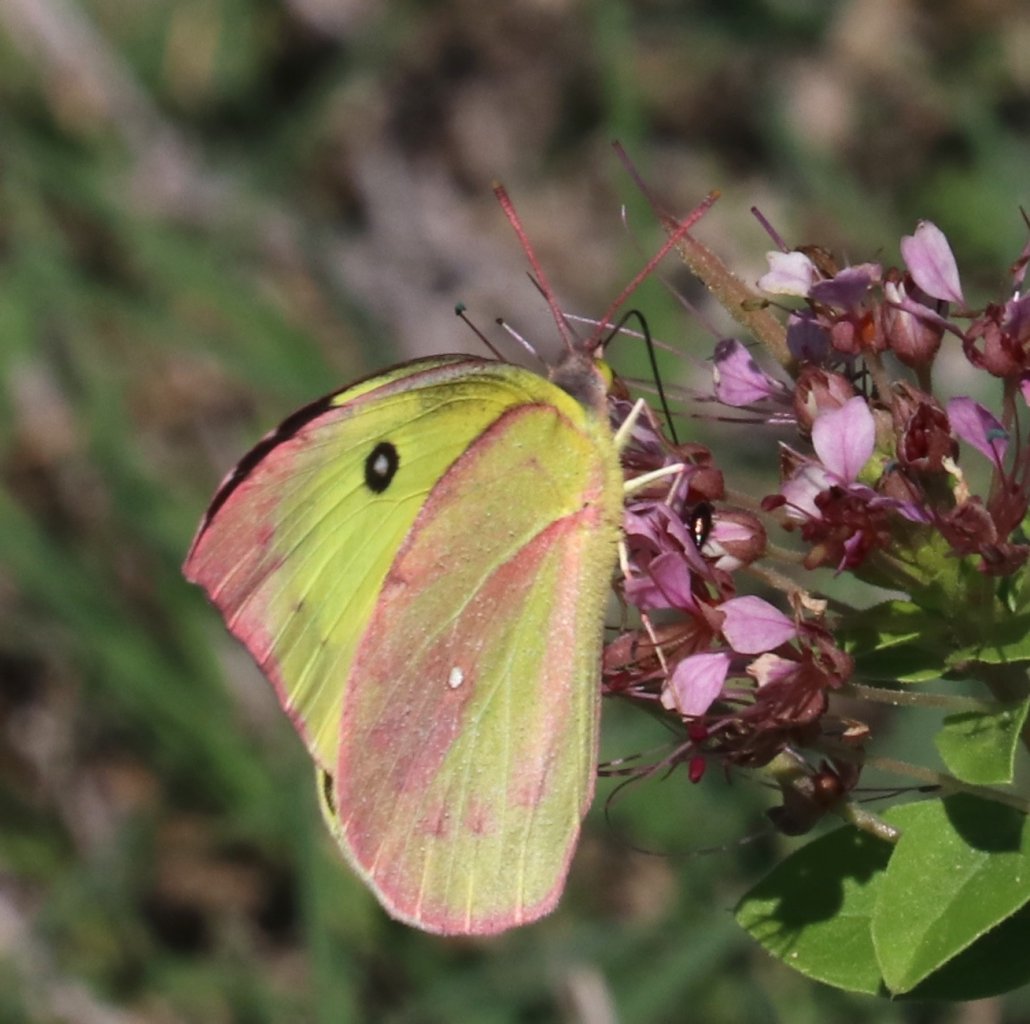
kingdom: Animalia
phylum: Arthropoda
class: Insecta
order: Lepidoptera
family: Pieridae
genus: Zerene
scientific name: Zerene cesonia
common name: Southern Dogface
